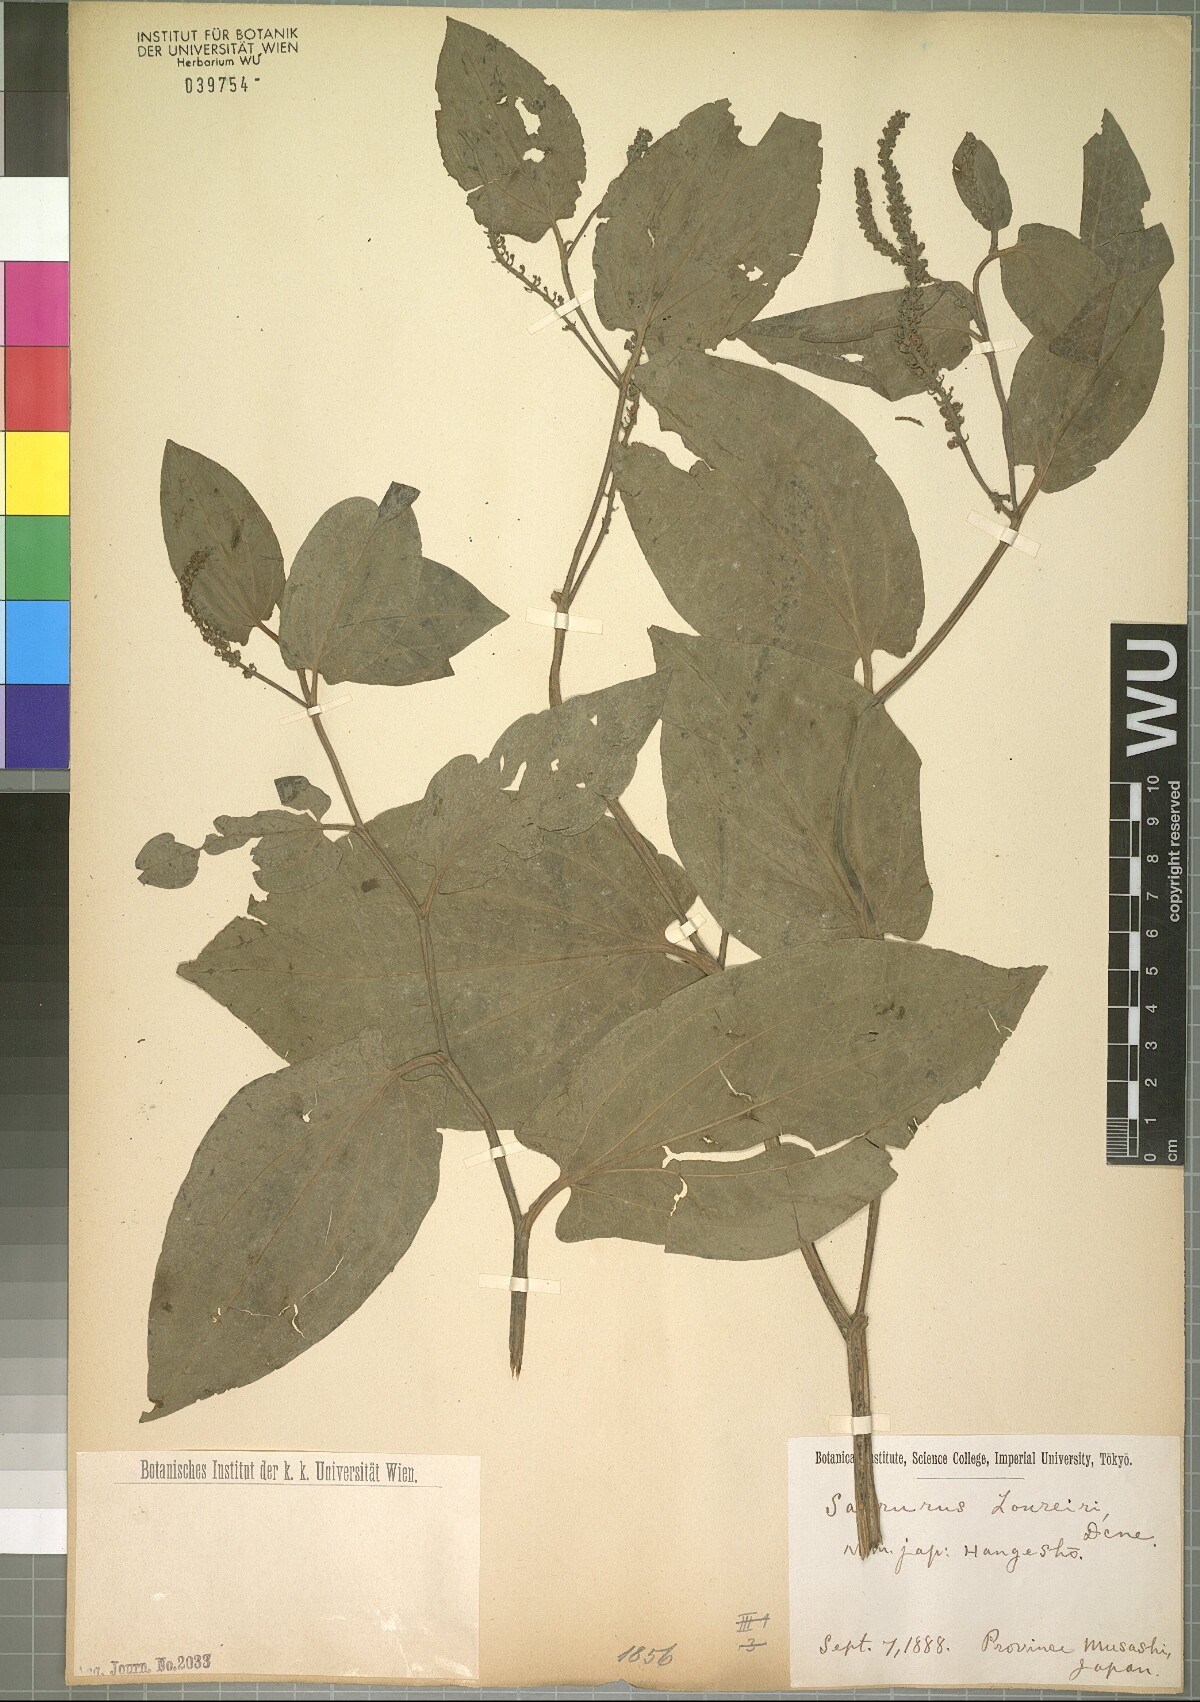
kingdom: Plantae
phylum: Tracheophyta
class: Magnoliopsida
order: Piperales
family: Saururaceae
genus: Saururus
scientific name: Saururus chinensis
